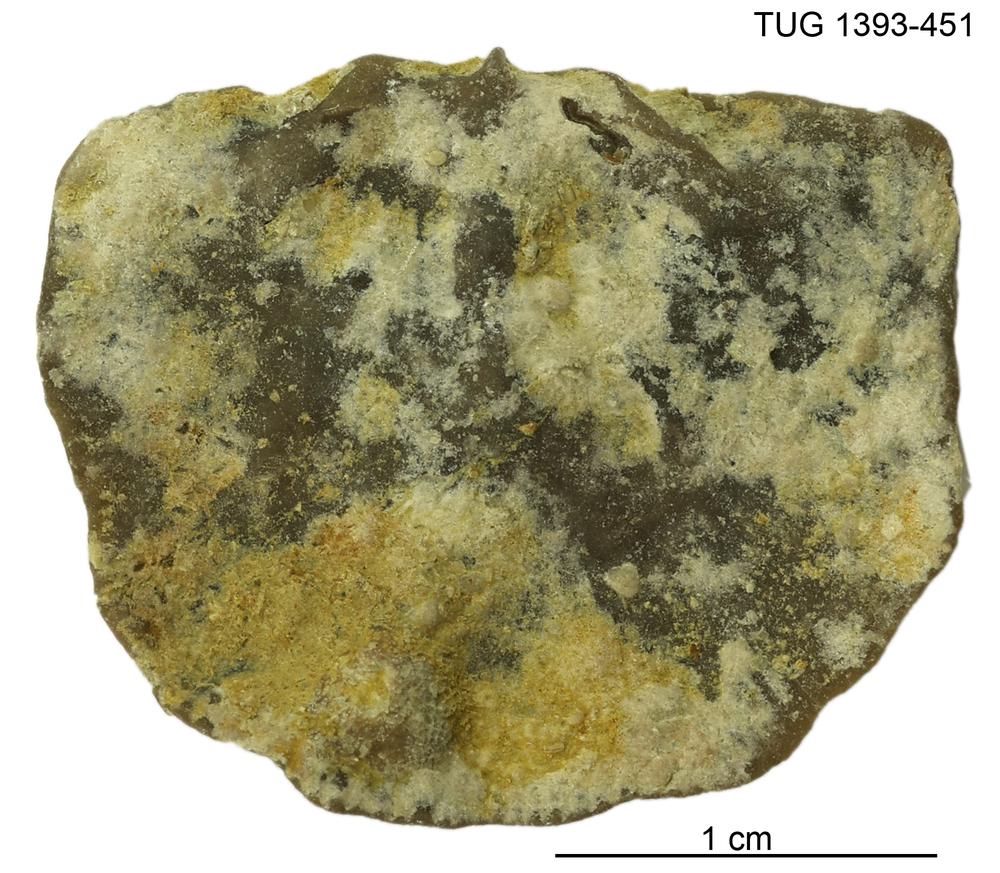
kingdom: Animalia
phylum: Brachiopoda
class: Rhynchonellata
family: Clitambonitidae
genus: Vellamo
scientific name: Vellamo
